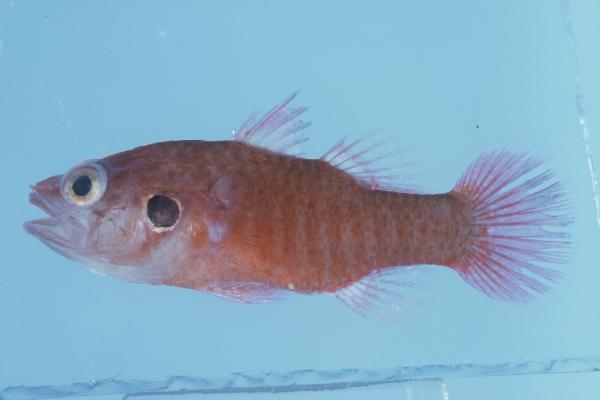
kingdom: Animalia
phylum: Chordata
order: Perciformes
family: Apogonidae
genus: Fowleria
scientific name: Fowleria aurita
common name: Crosseyed cardinalfish
